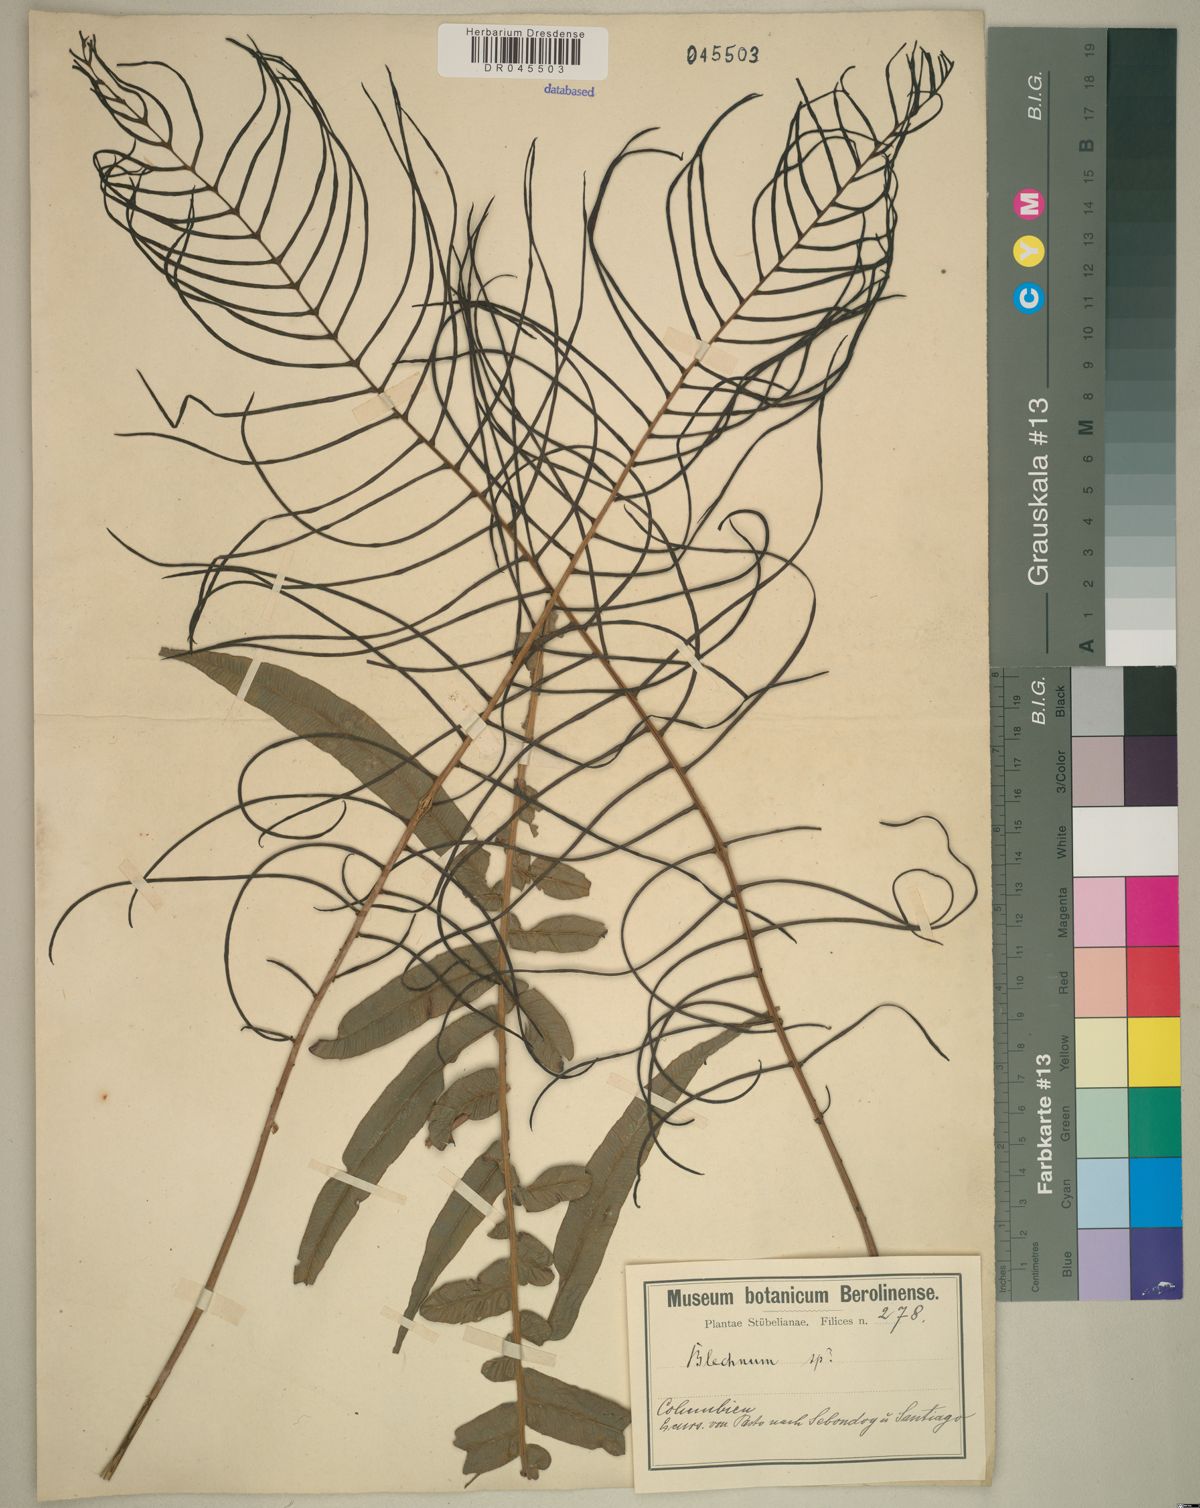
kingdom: Plantae
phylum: Tracheophyta
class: Polypodiopsida
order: Polypodiales
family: Blechnaceae
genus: Blechnum
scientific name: Blechnum
